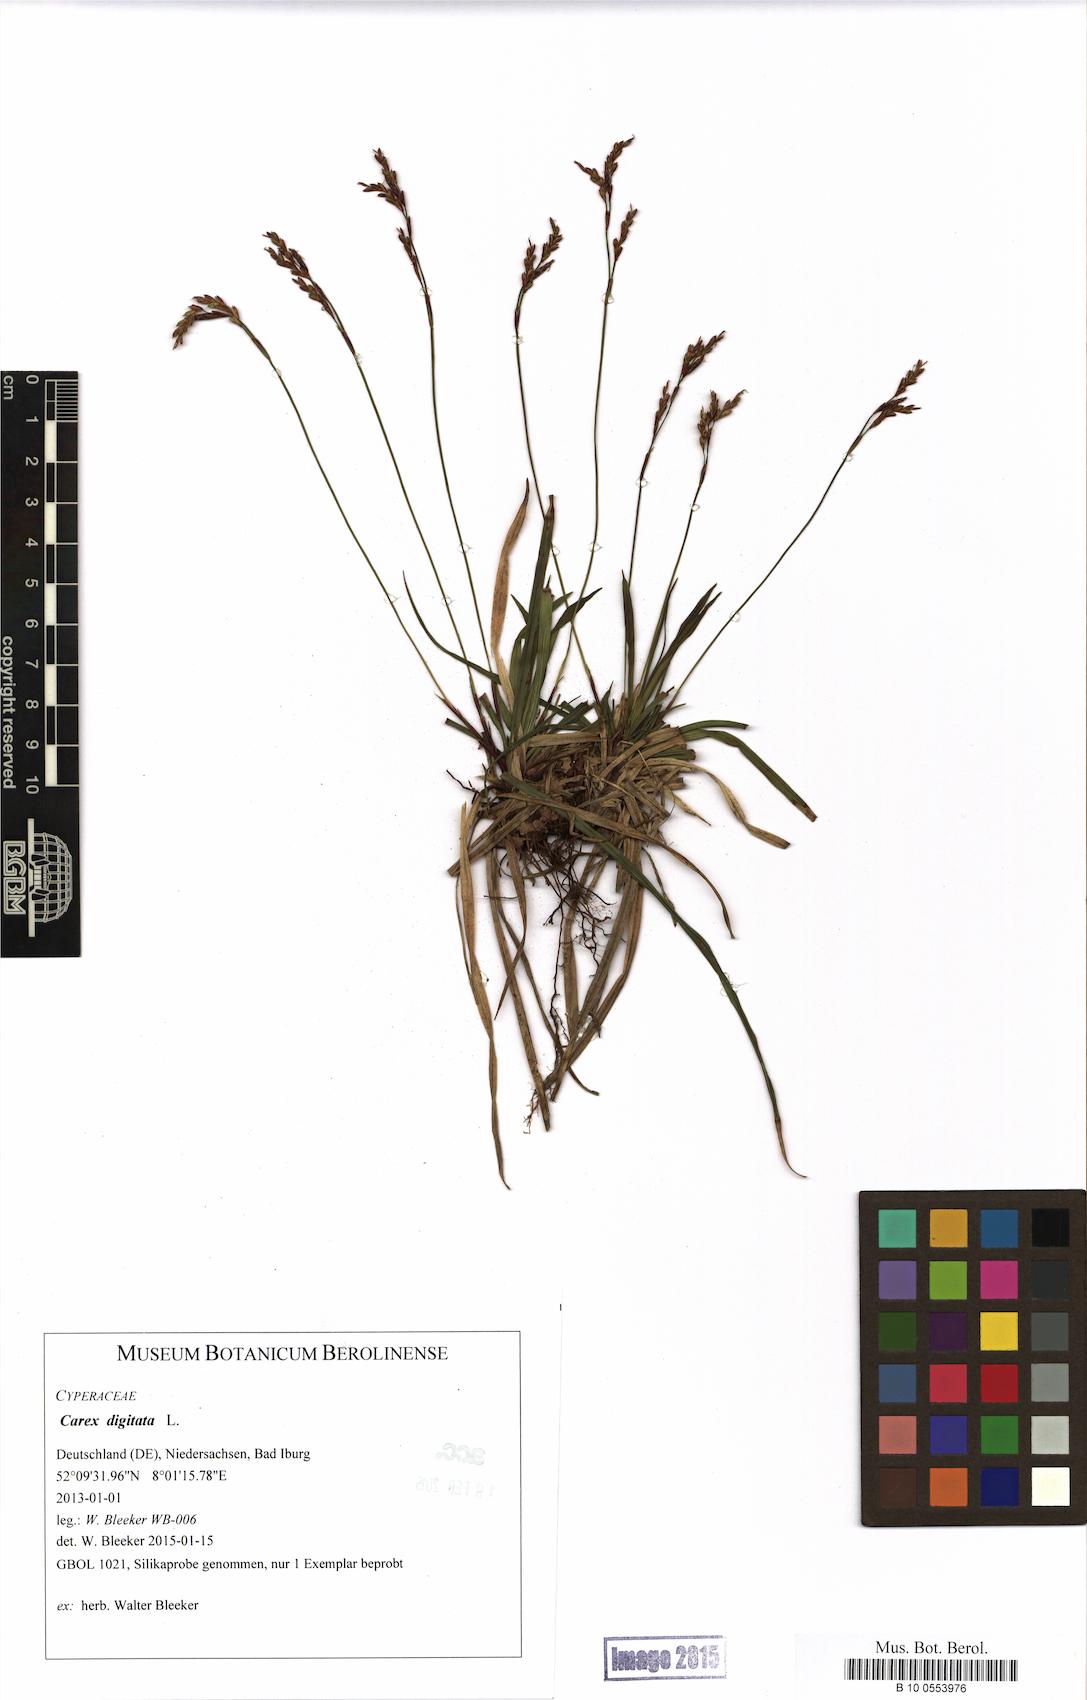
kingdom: Plantae
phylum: Tracheophyta
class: Liliopsida
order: Poales
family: Cyperaceae
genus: Carex
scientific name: Carex digitata
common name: Fingered sedge
